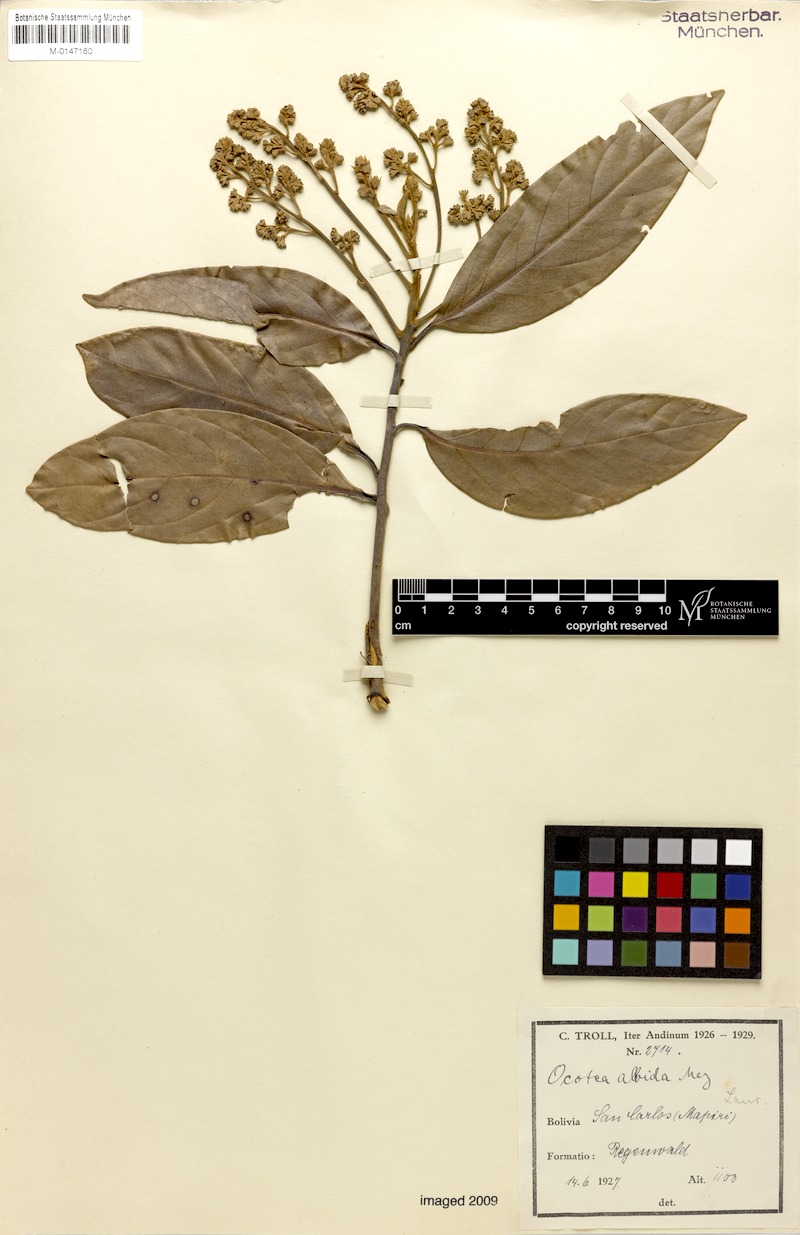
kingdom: Plantae
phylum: Tracheophyta
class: Magnoliopsida
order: Laurales
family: Lauraceae
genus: Ocotea
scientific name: Ocotea albida
